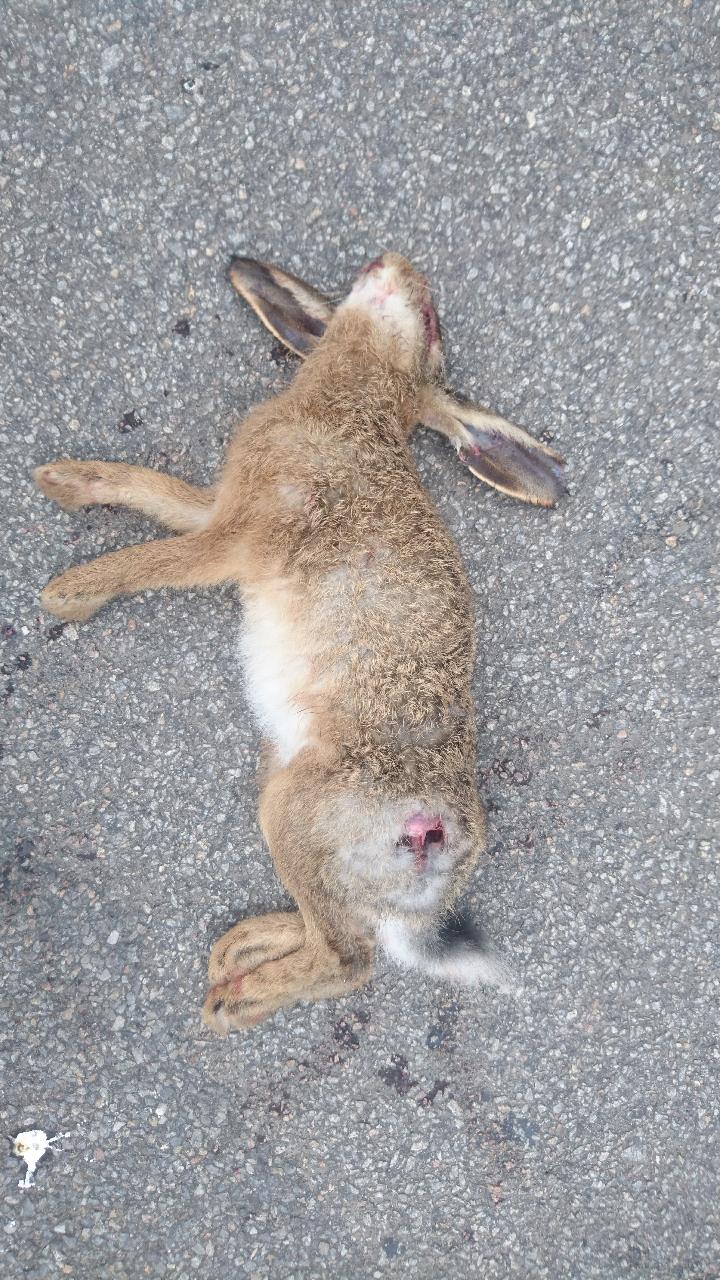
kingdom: Animalia
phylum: Chordata
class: Mammalia
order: Lagomorpha
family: Leporidae
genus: Lepus
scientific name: Lepus europaeus
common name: European hare
